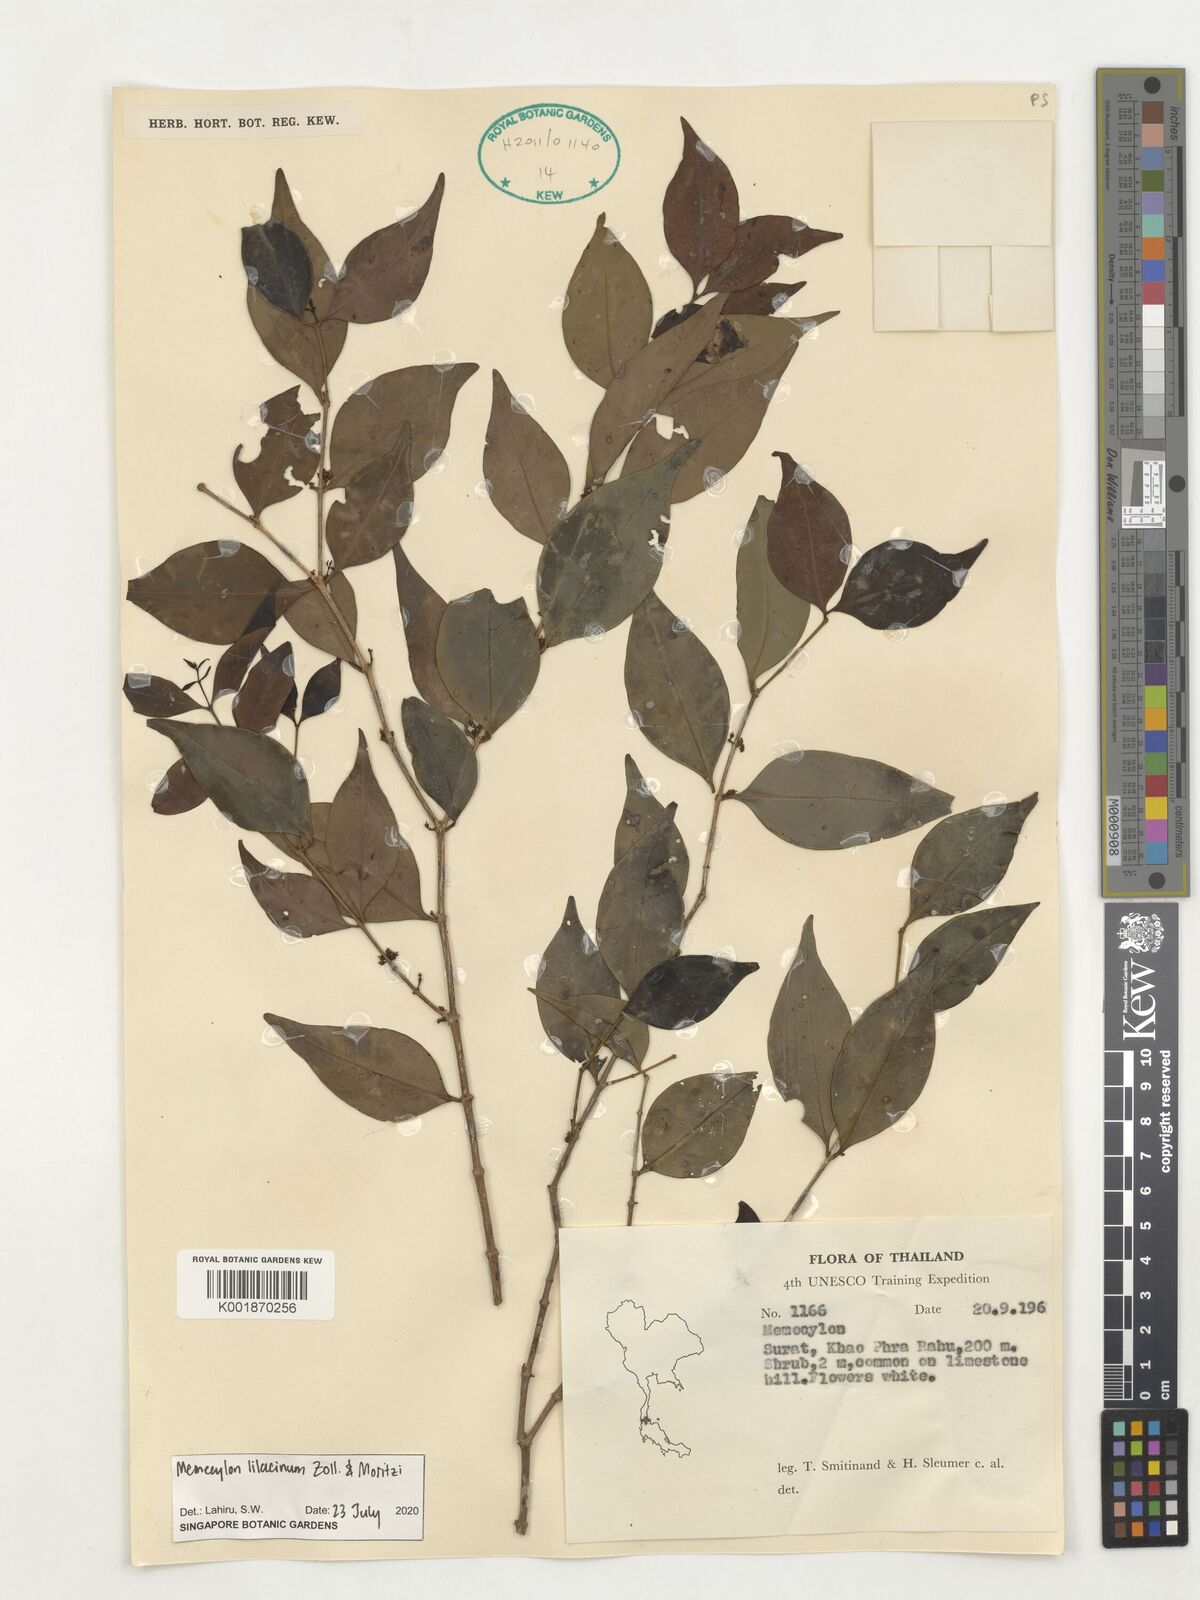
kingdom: Plantae
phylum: Tracheophyta
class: Magnoliopsida
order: Myrtales
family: Melastomataceae
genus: Memecylon
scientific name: Memecylon lilacinum
